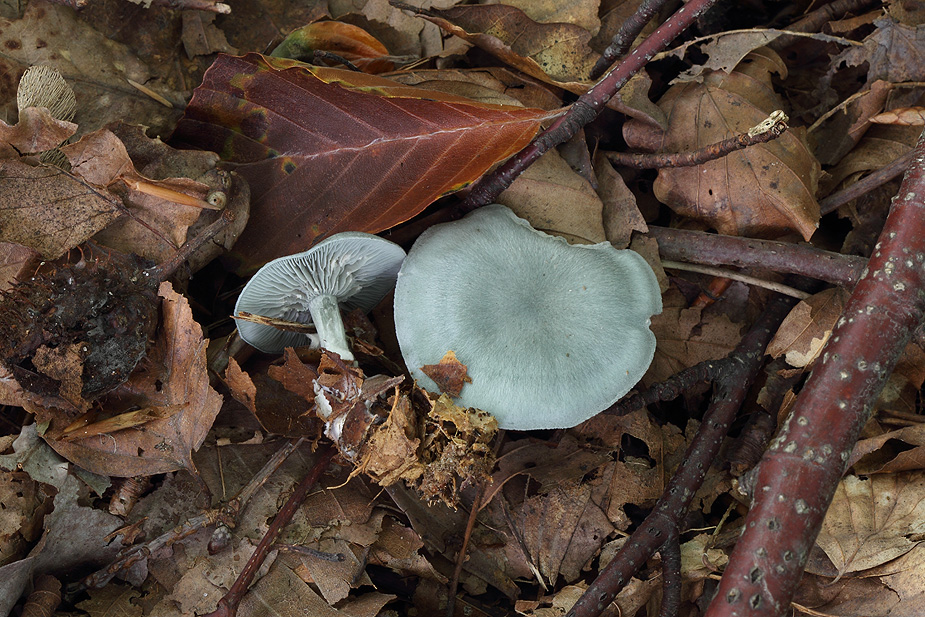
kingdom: Fungi
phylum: Basidiomycota
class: Agaricomycetes
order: Agaricales
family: Tricholomataceae
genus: Clitocybe
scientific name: Clitocybe odora
